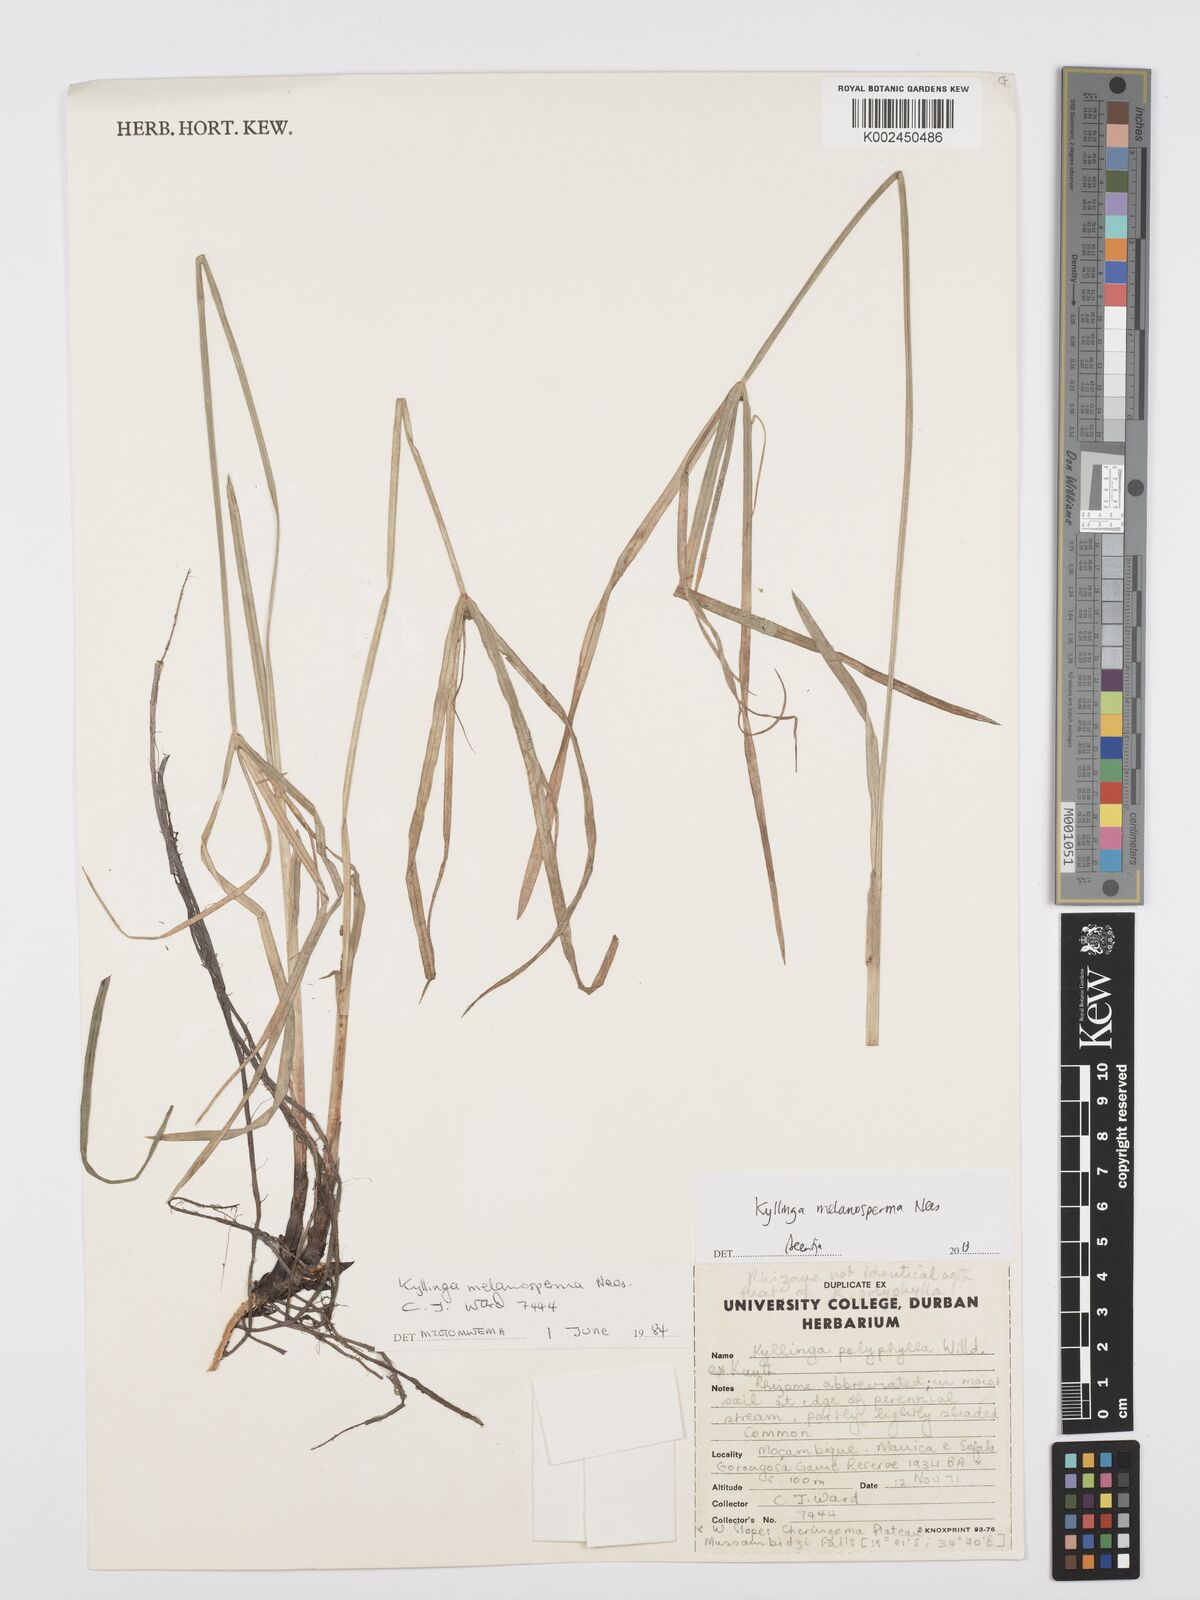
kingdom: Plantae
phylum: Tracheophyta
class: Liliopsida
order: Poales
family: Cyperaceae
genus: Cyperus
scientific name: Cyperus melanospermus
